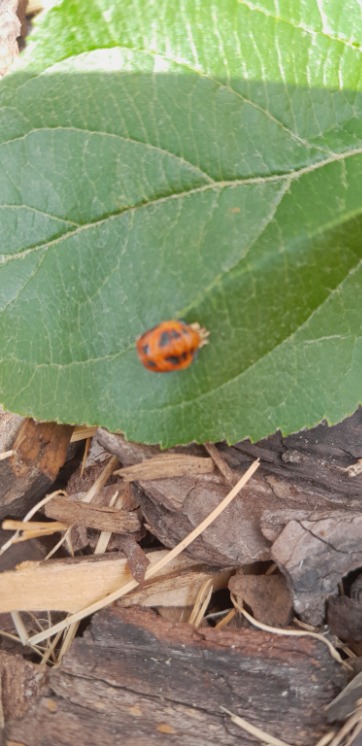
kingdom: Animalia
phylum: Arthropoda
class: Insecta
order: Coleoptera
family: Coccinellidae
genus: Harmonia
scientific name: Harmonia axyridis
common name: Harlekinmariehøne
